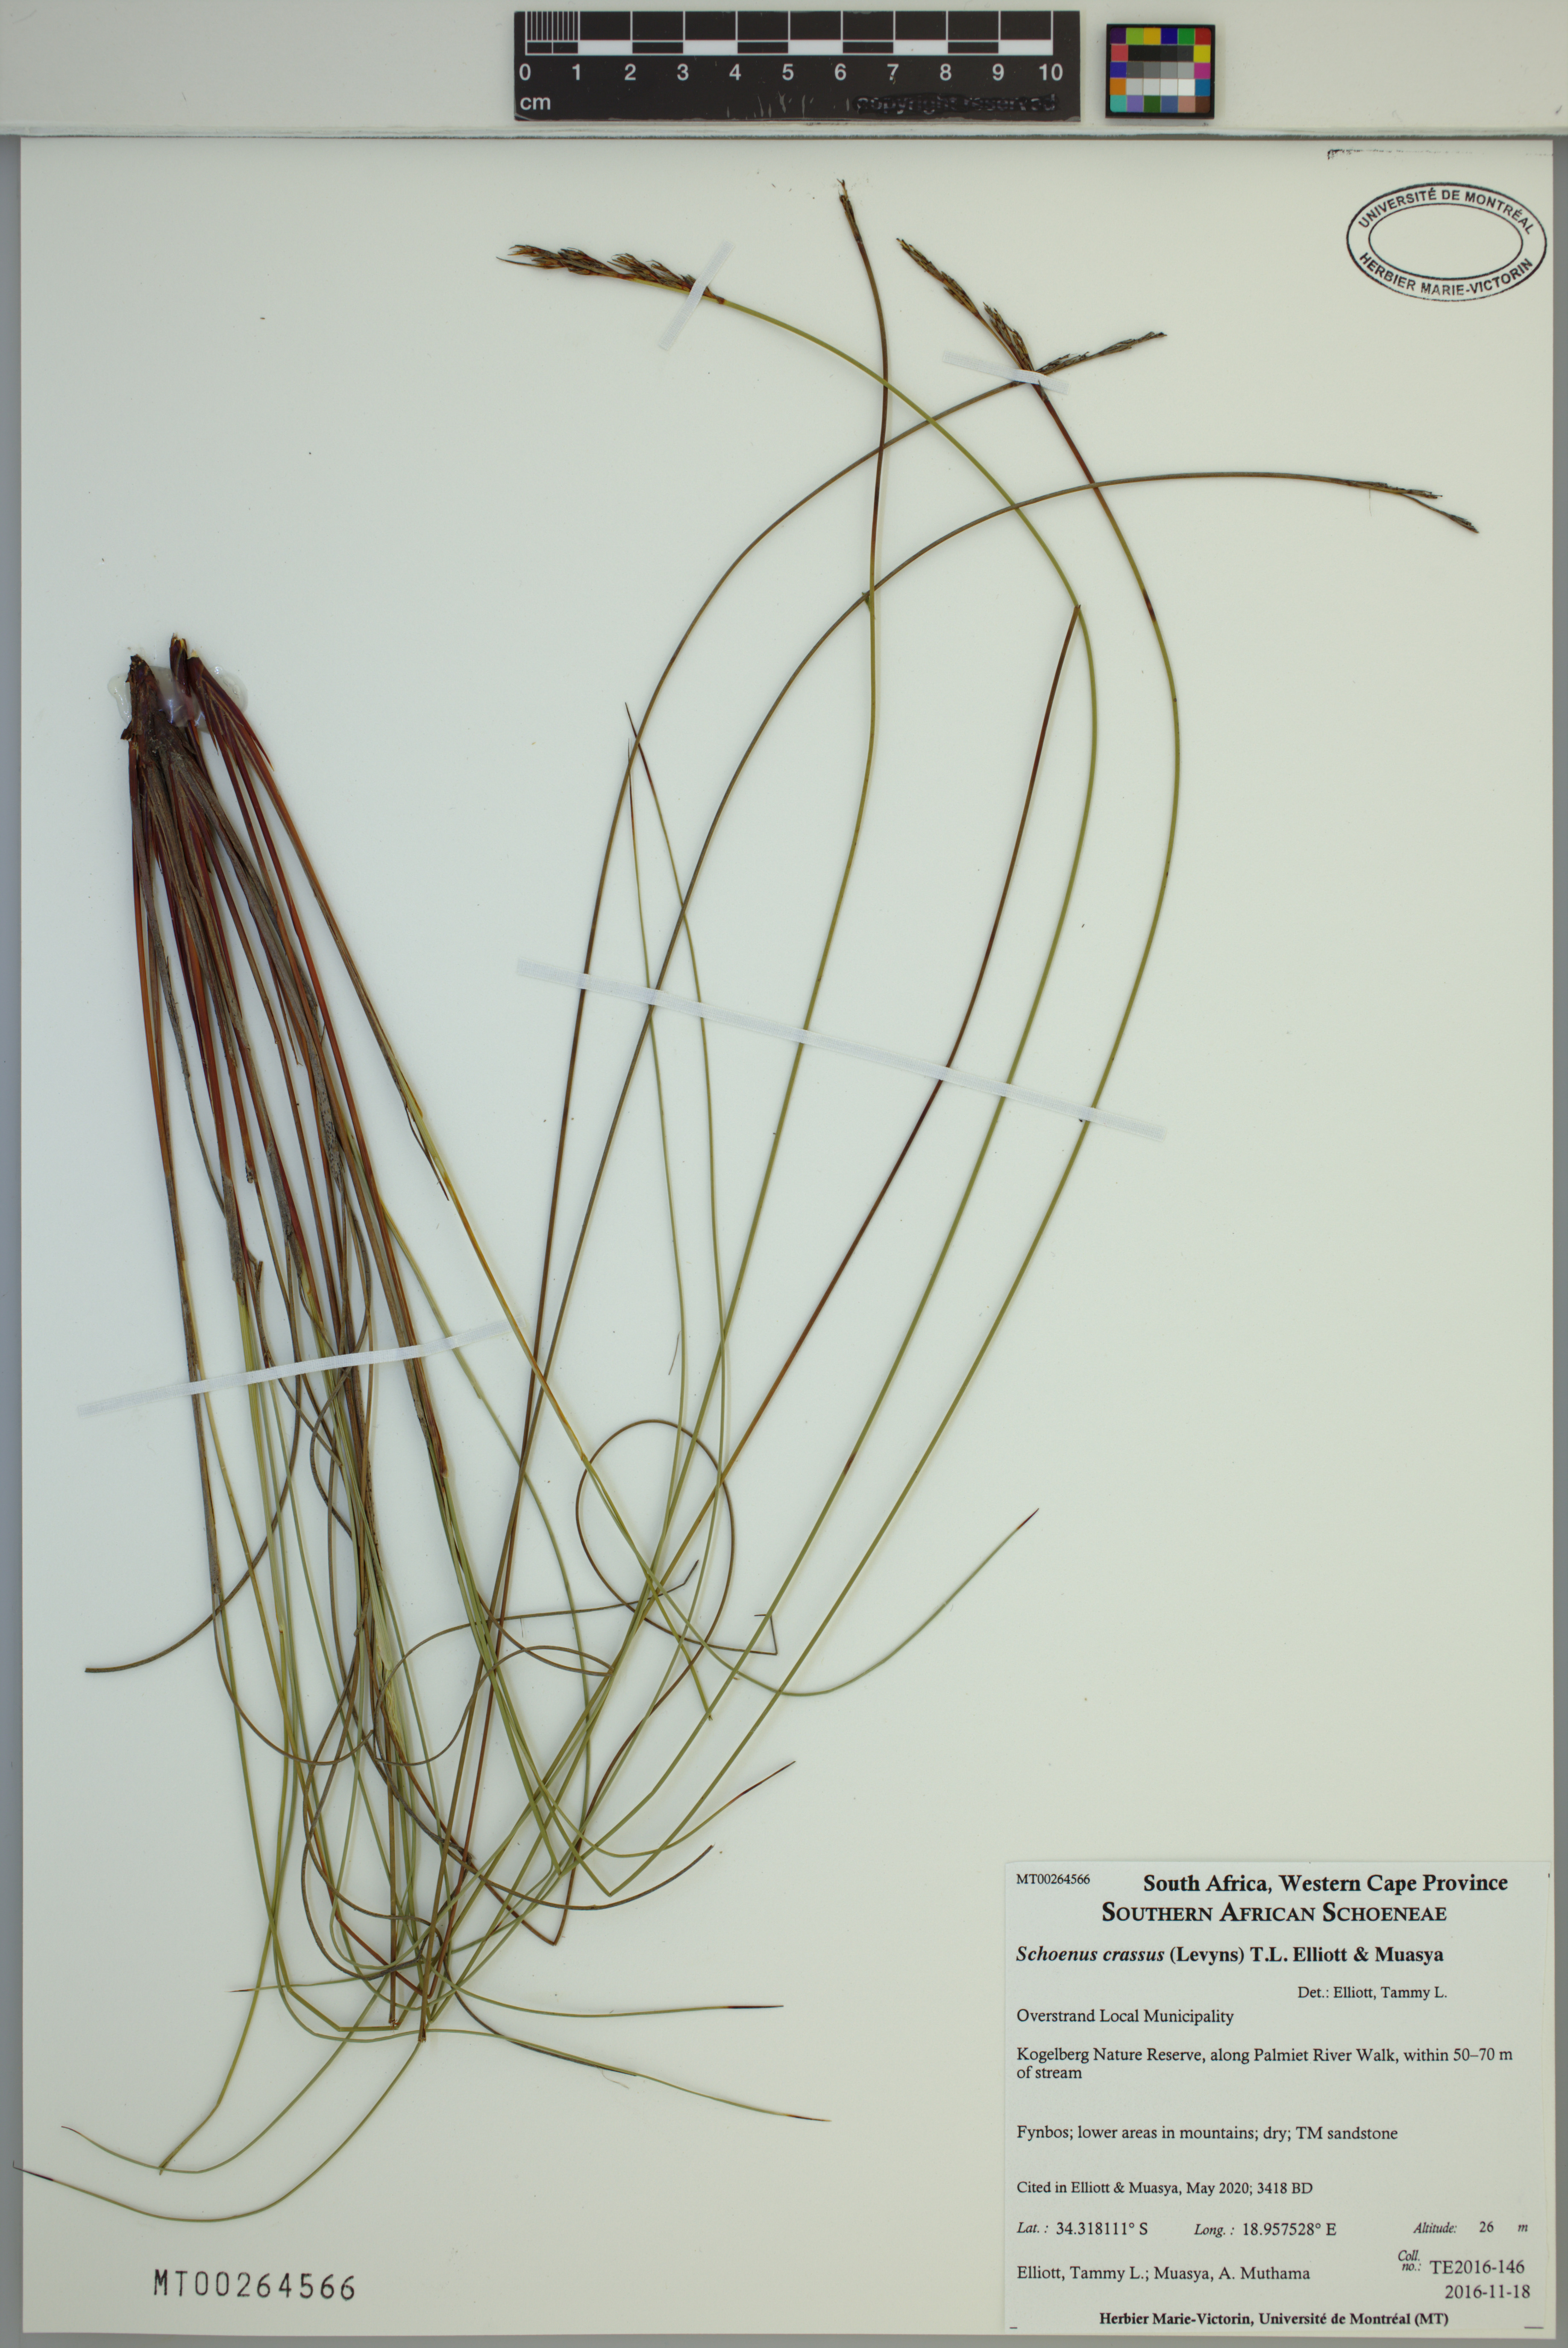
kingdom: Plantae
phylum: Tracheophyta
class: Liliopsida
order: Poales
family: Cyperaceae
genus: Schoenus
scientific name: Schoenus crassus
